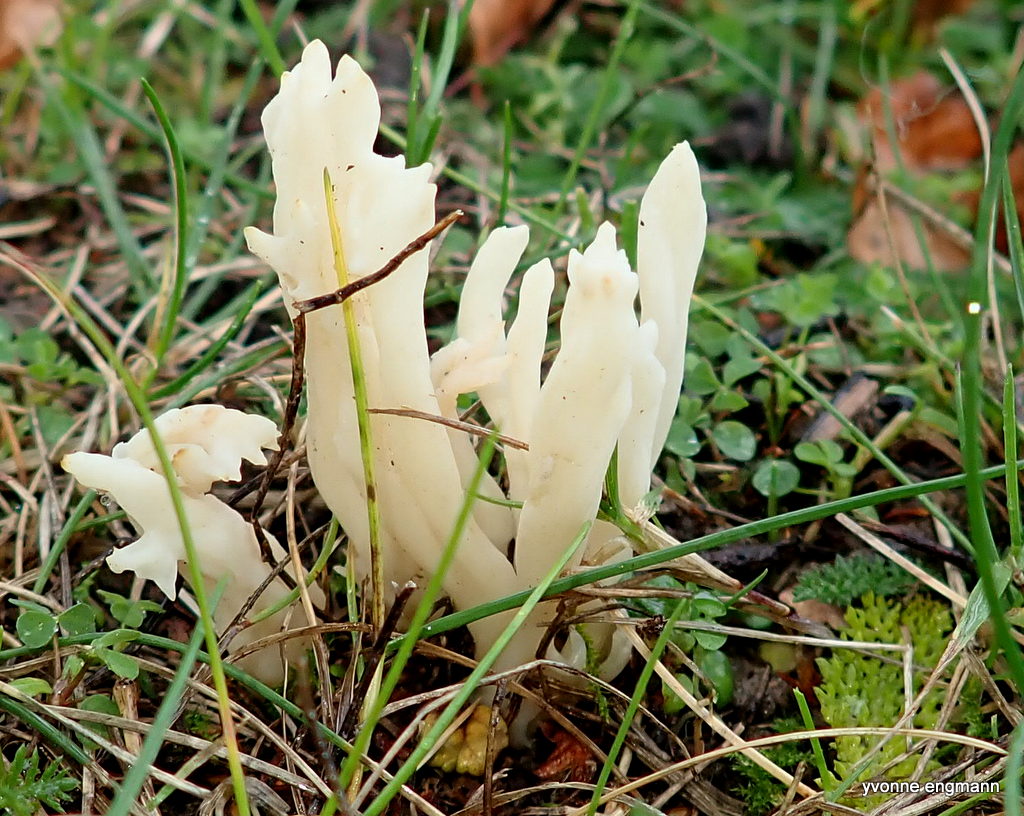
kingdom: Fungi
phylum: Basidiomycota
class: Agaricomycetes
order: Cantharellales
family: Hydnaceae
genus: Clavulina
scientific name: Clavulina
